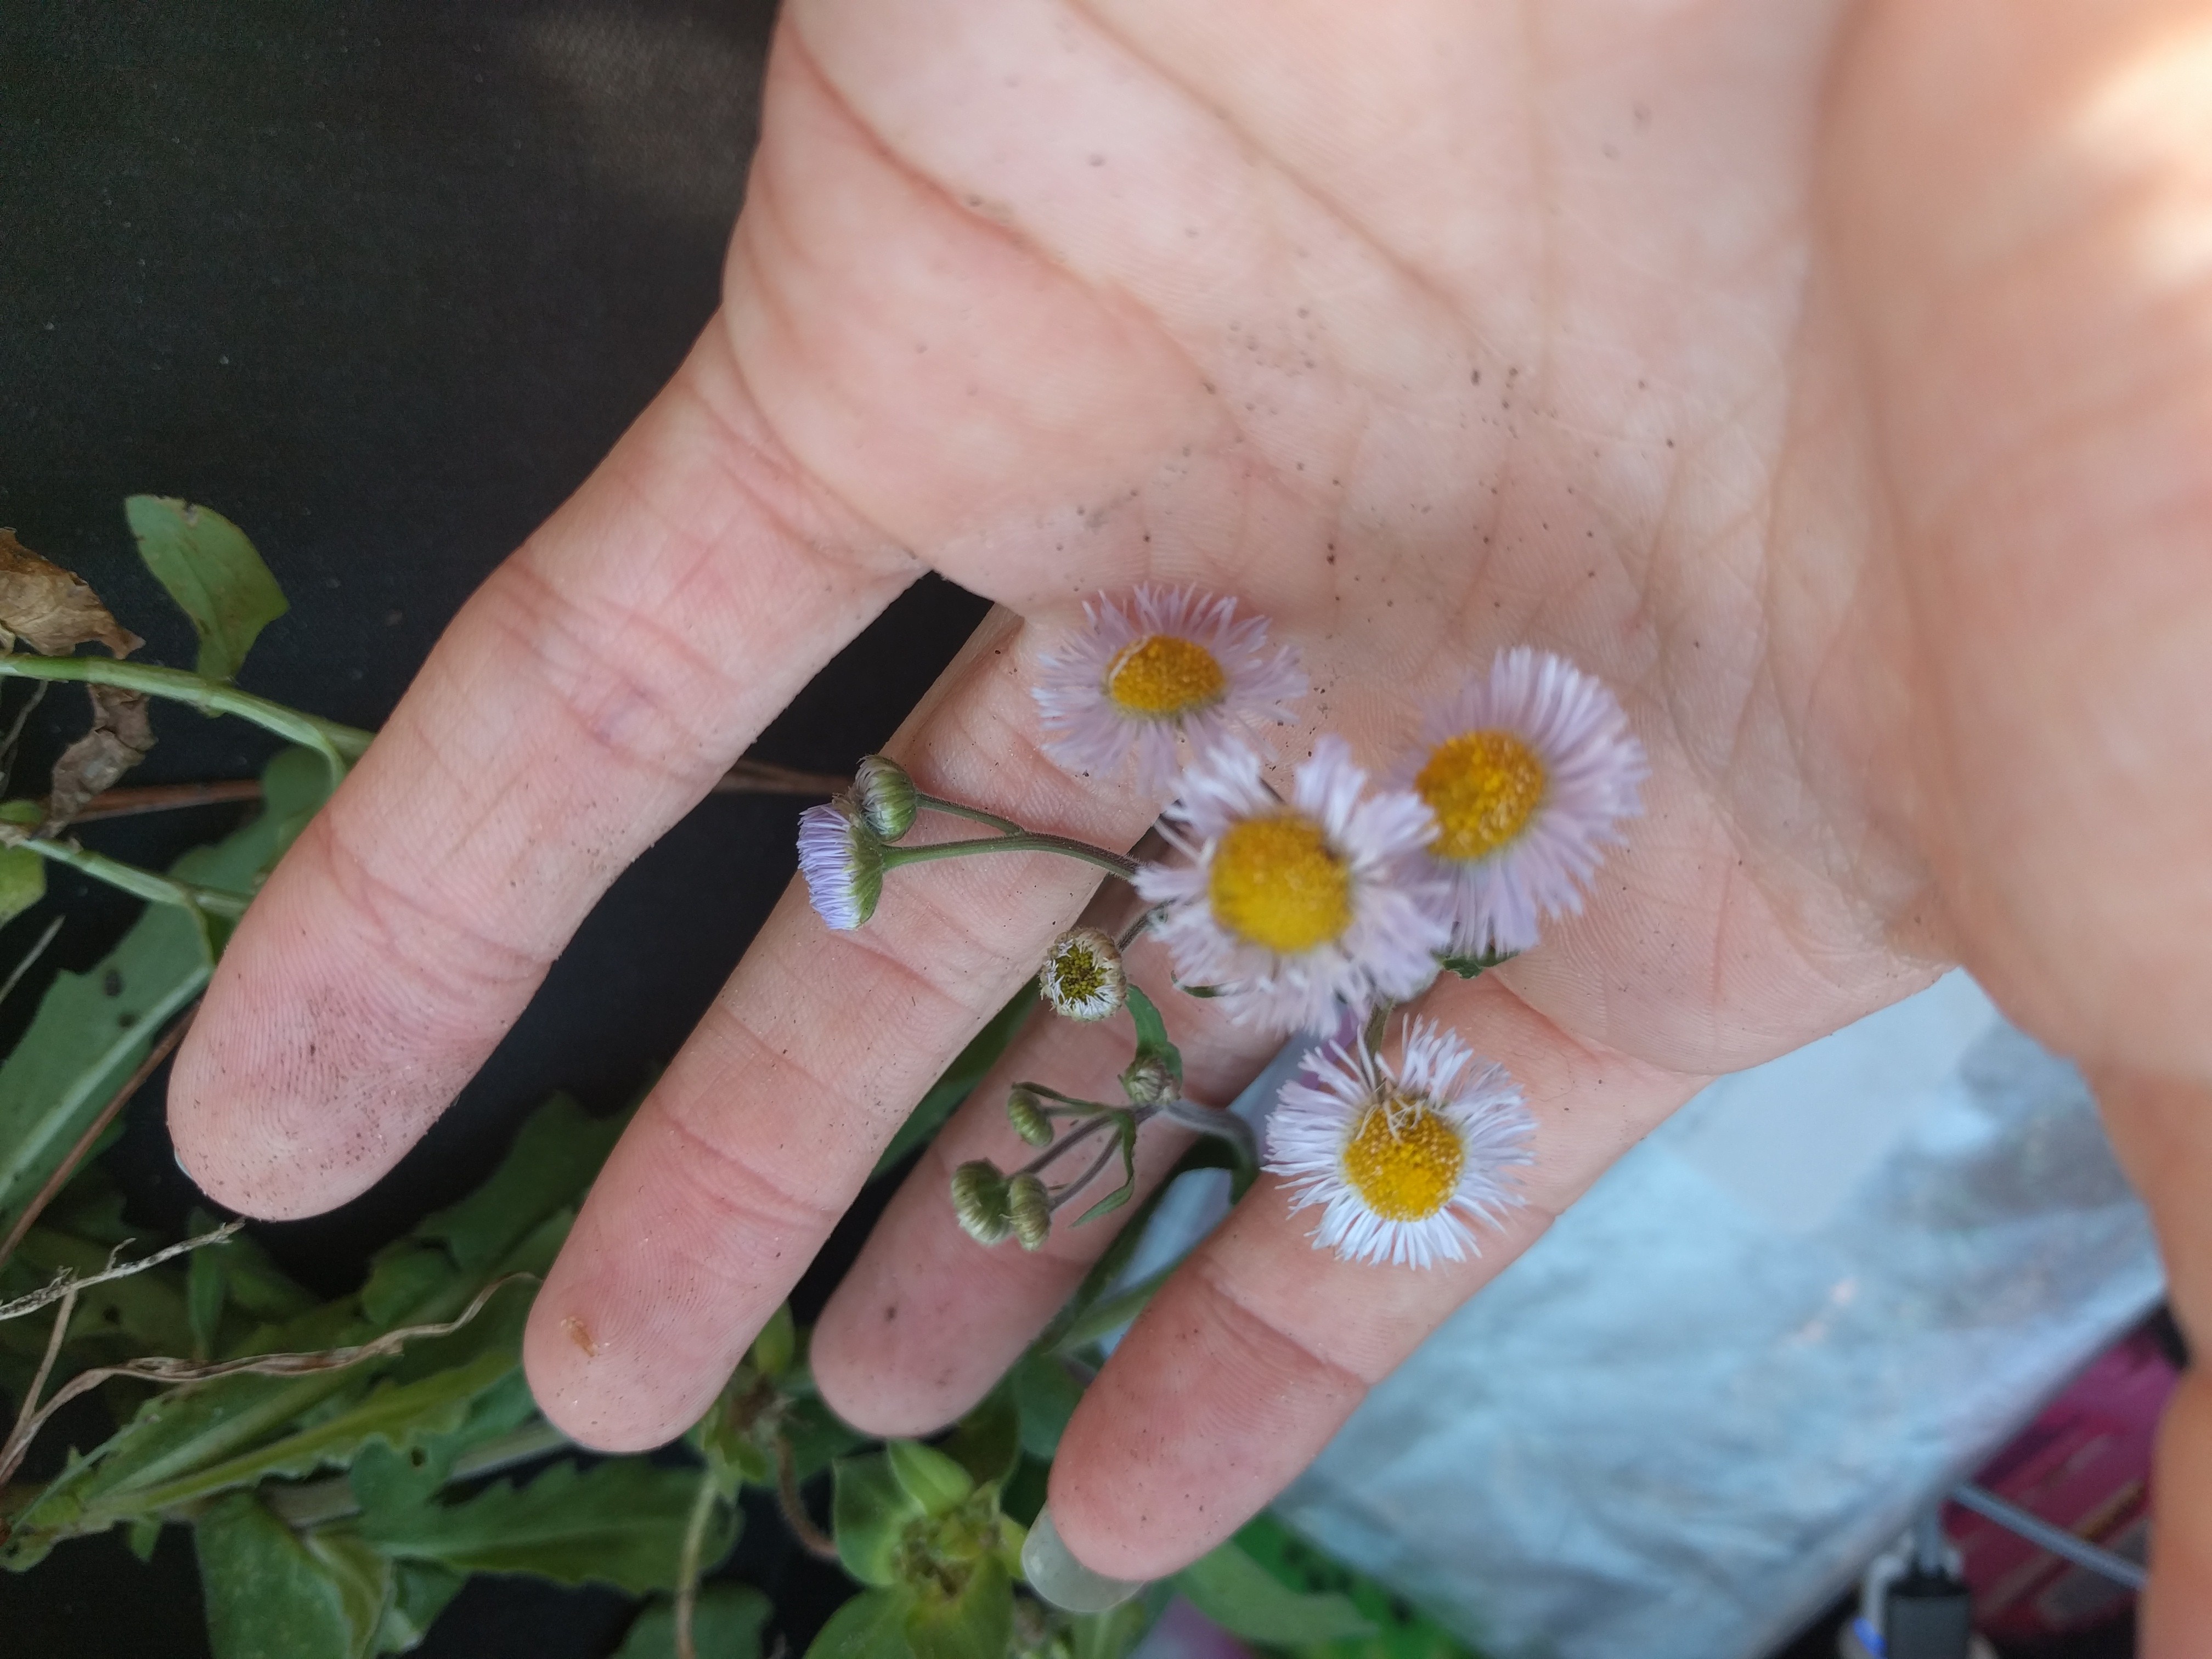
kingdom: Plantae
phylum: Tracheophyta
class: Magnoliopsida
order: Asterales
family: Asteraceae
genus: Erigeron
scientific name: Erigeron quercifolius
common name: Fleabane
